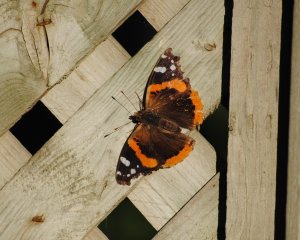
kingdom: Animalia
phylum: Arthropoda
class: Insecta
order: Lepidoptera
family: Nymphalidae
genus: Vanessa
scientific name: Vanessa atalanta
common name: Red Admiral
